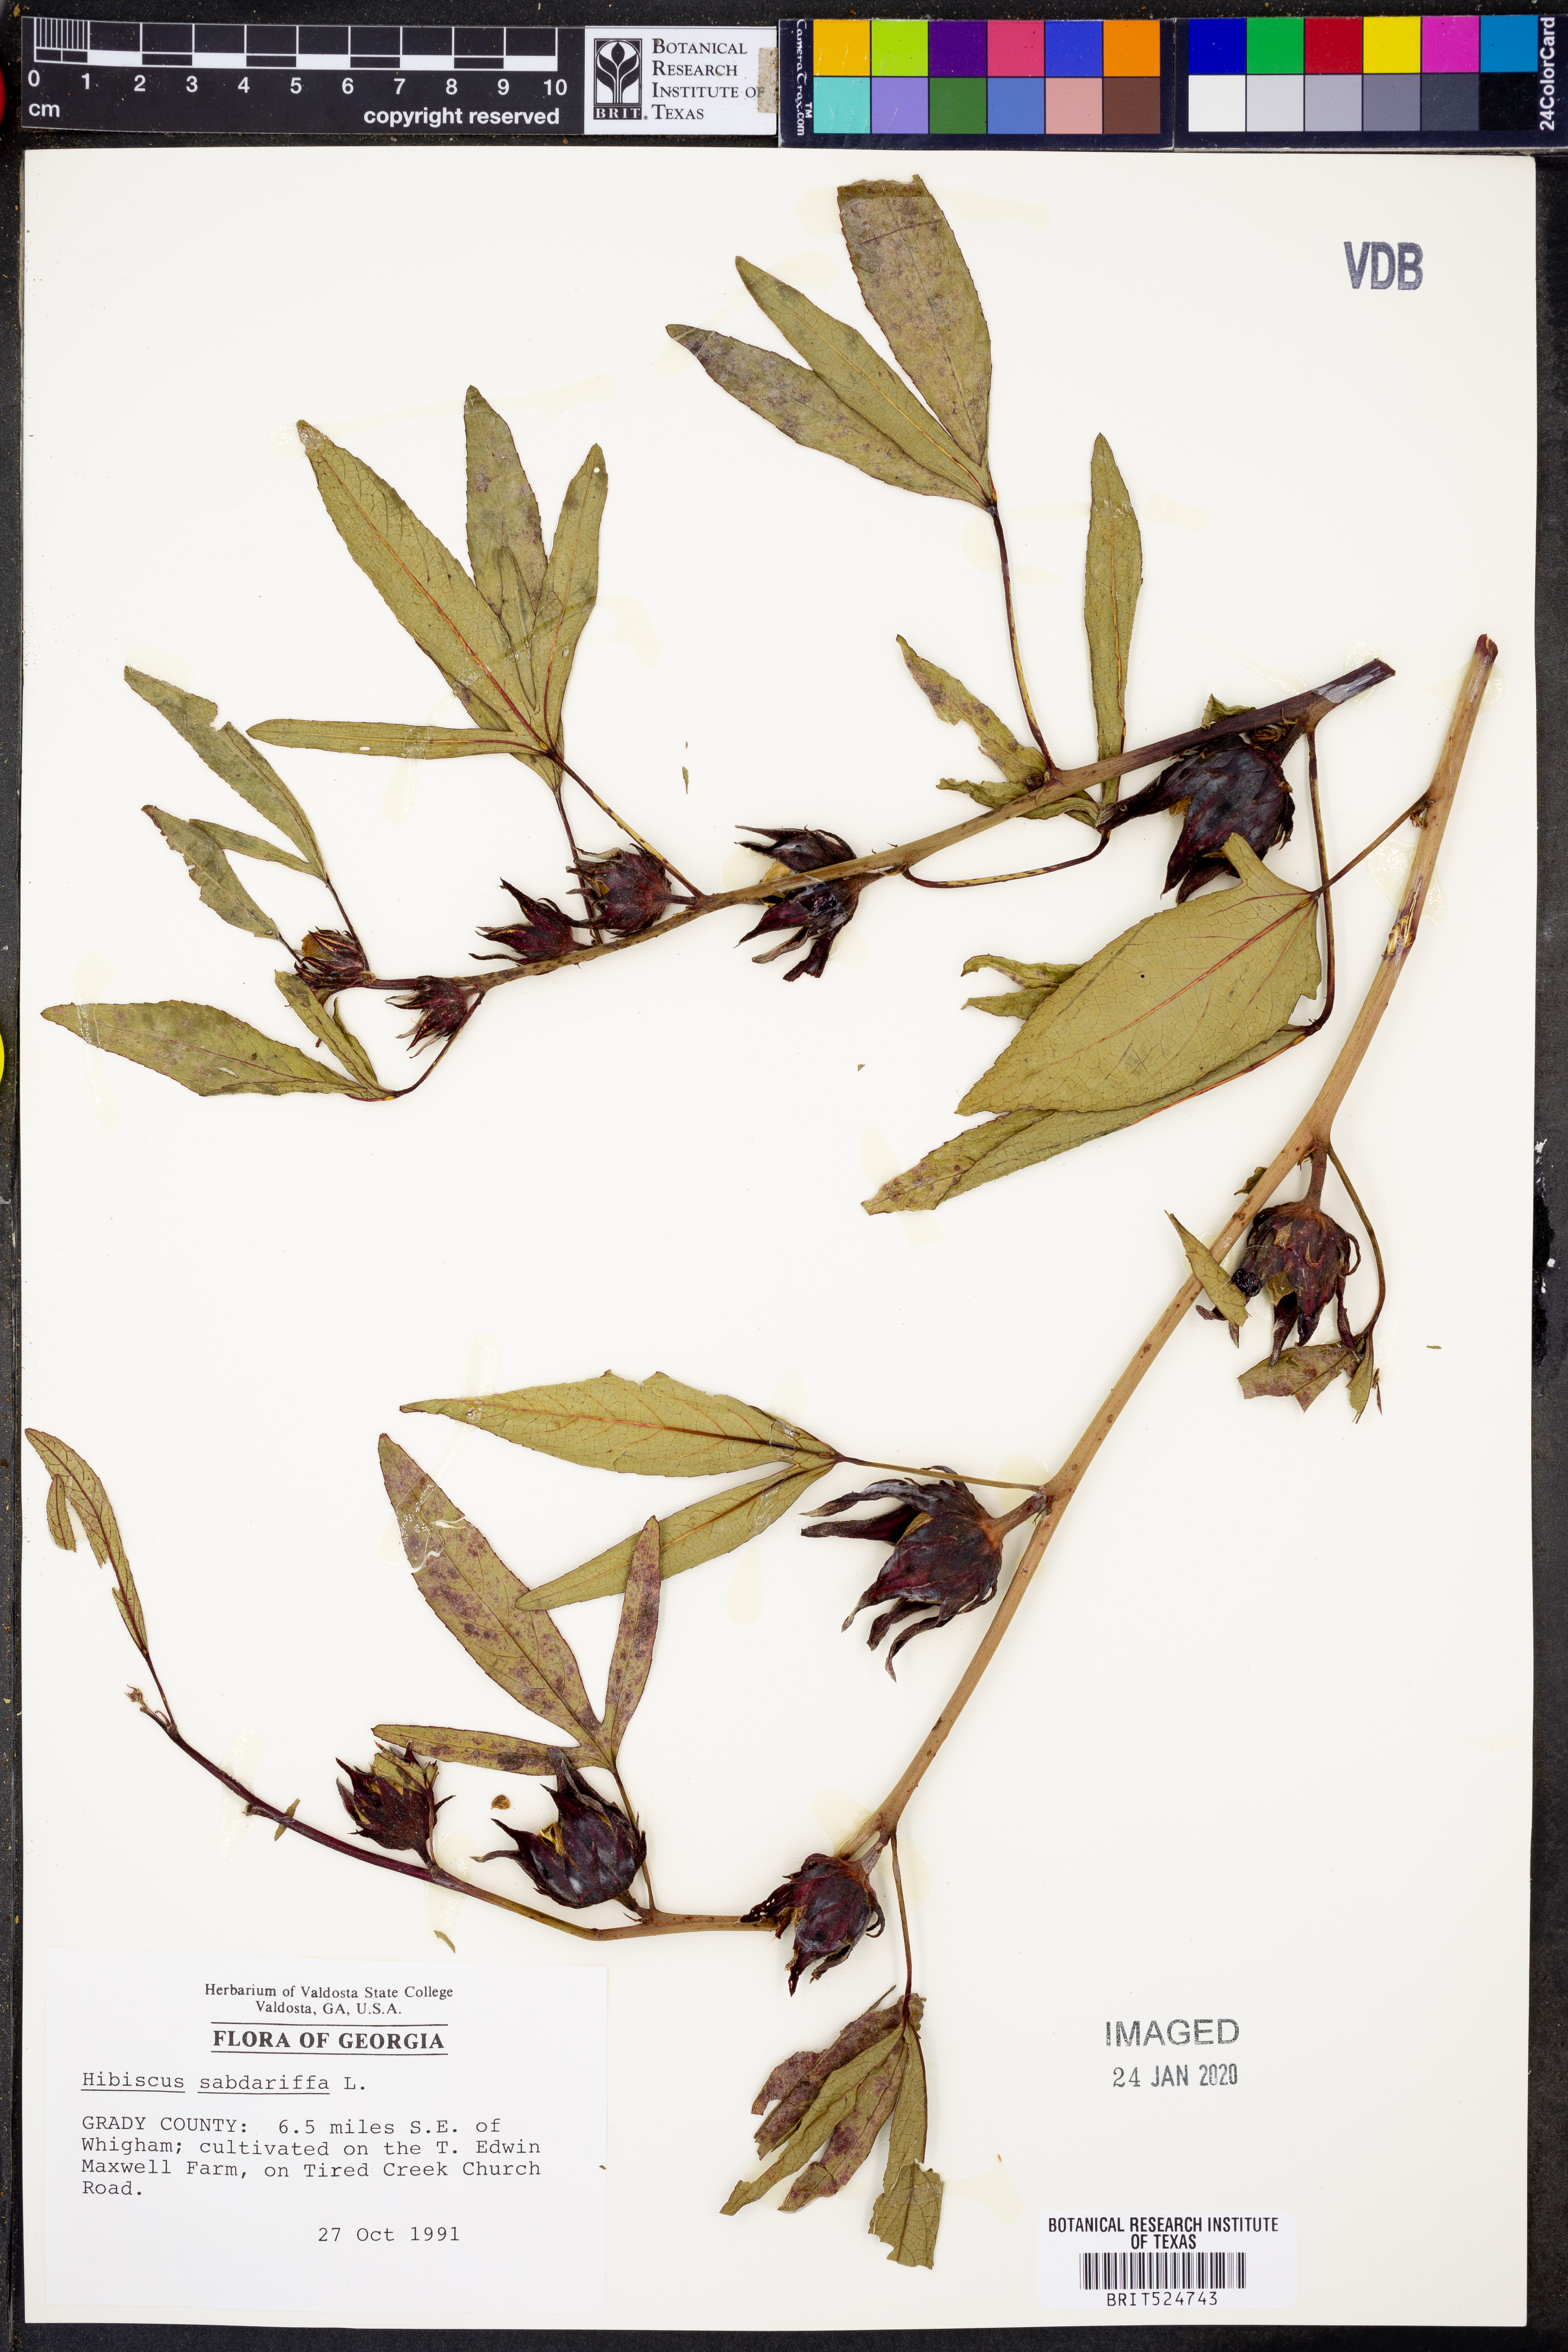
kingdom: Plantae
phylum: Tracheophyta
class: Magnoliopsida
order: Malvales
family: Malvaceae
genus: Hibiscus
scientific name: Hibiscus sabdariffa
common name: Roselle
